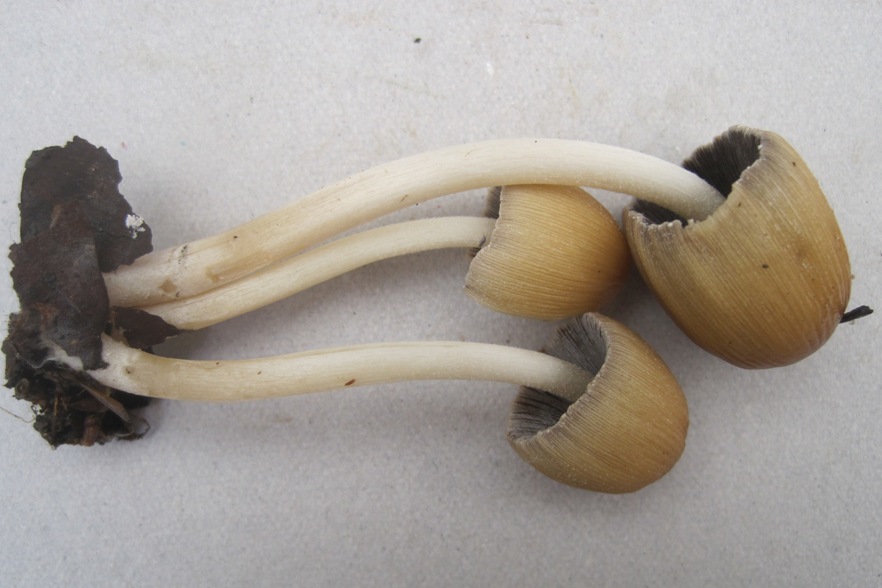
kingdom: Fungi
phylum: Basidiomycota
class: Agaricomycetes
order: Agaricales
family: Psathyrellaceae
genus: Coprinopsis
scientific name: Coprinopsis lagopus
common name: dunstokket blækhat
